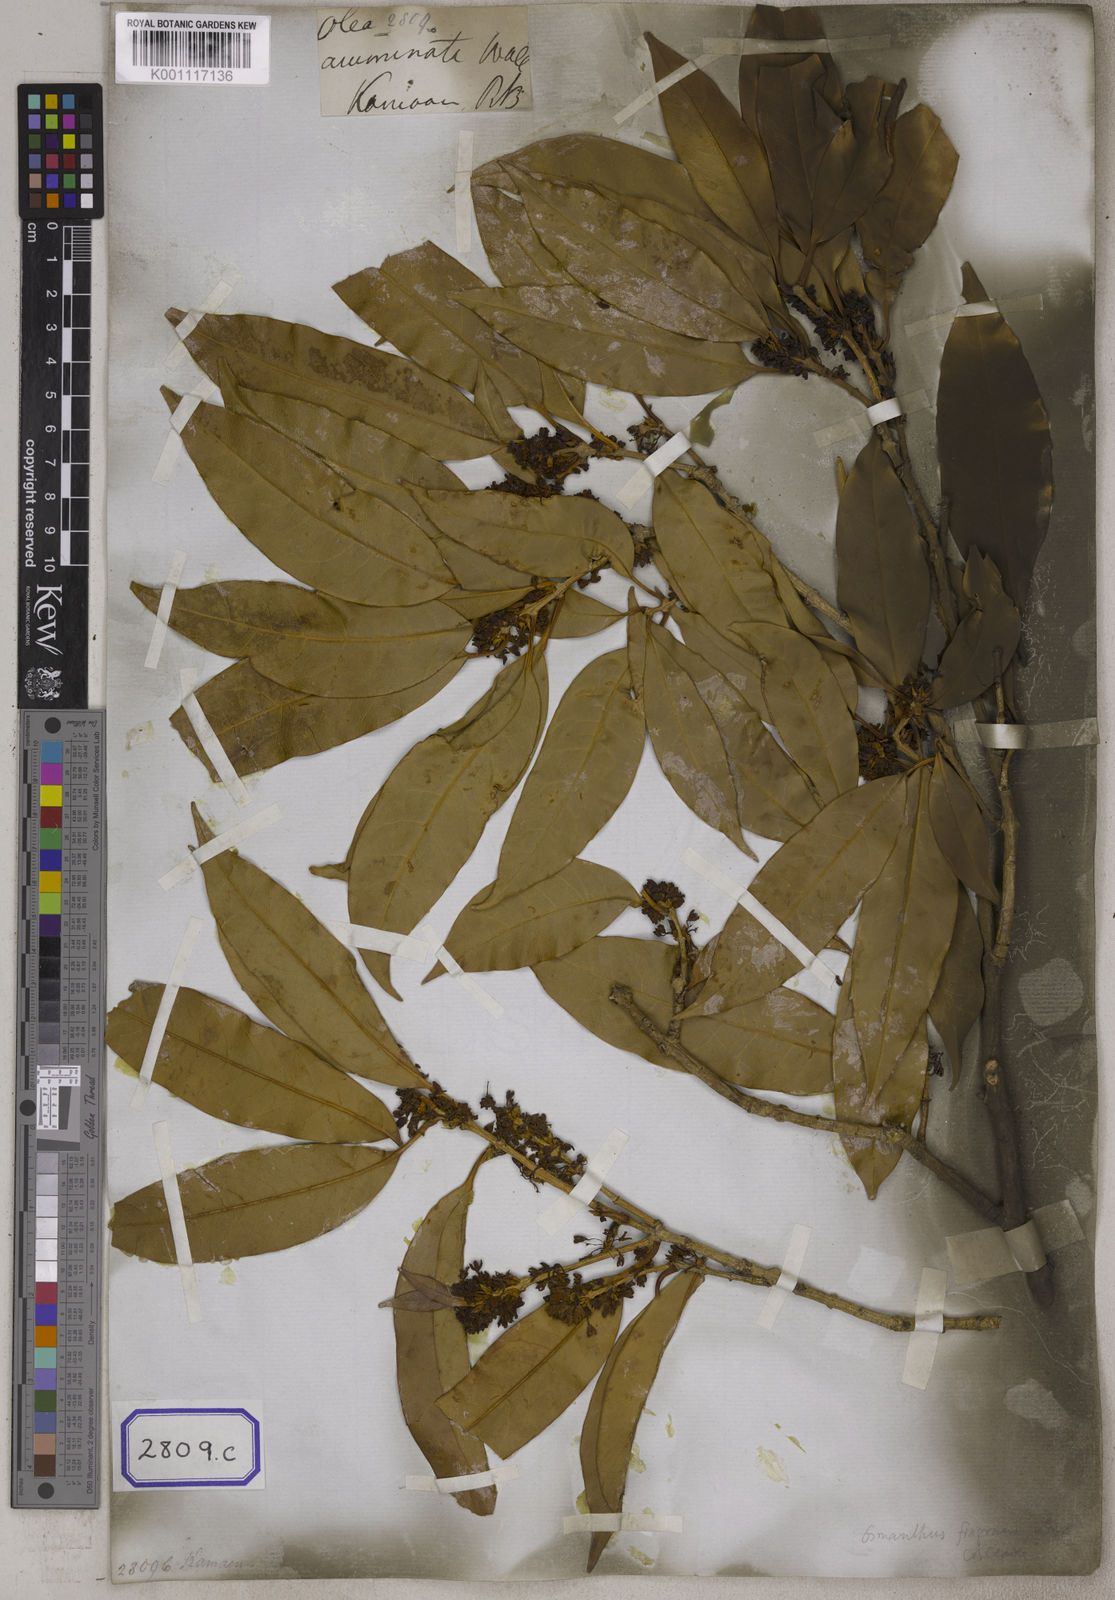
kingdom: Plantae
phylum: Tracheophyta
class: Magnoliopsida
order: Lamiales
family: Oleaceae
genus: Olea
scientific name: Olea
